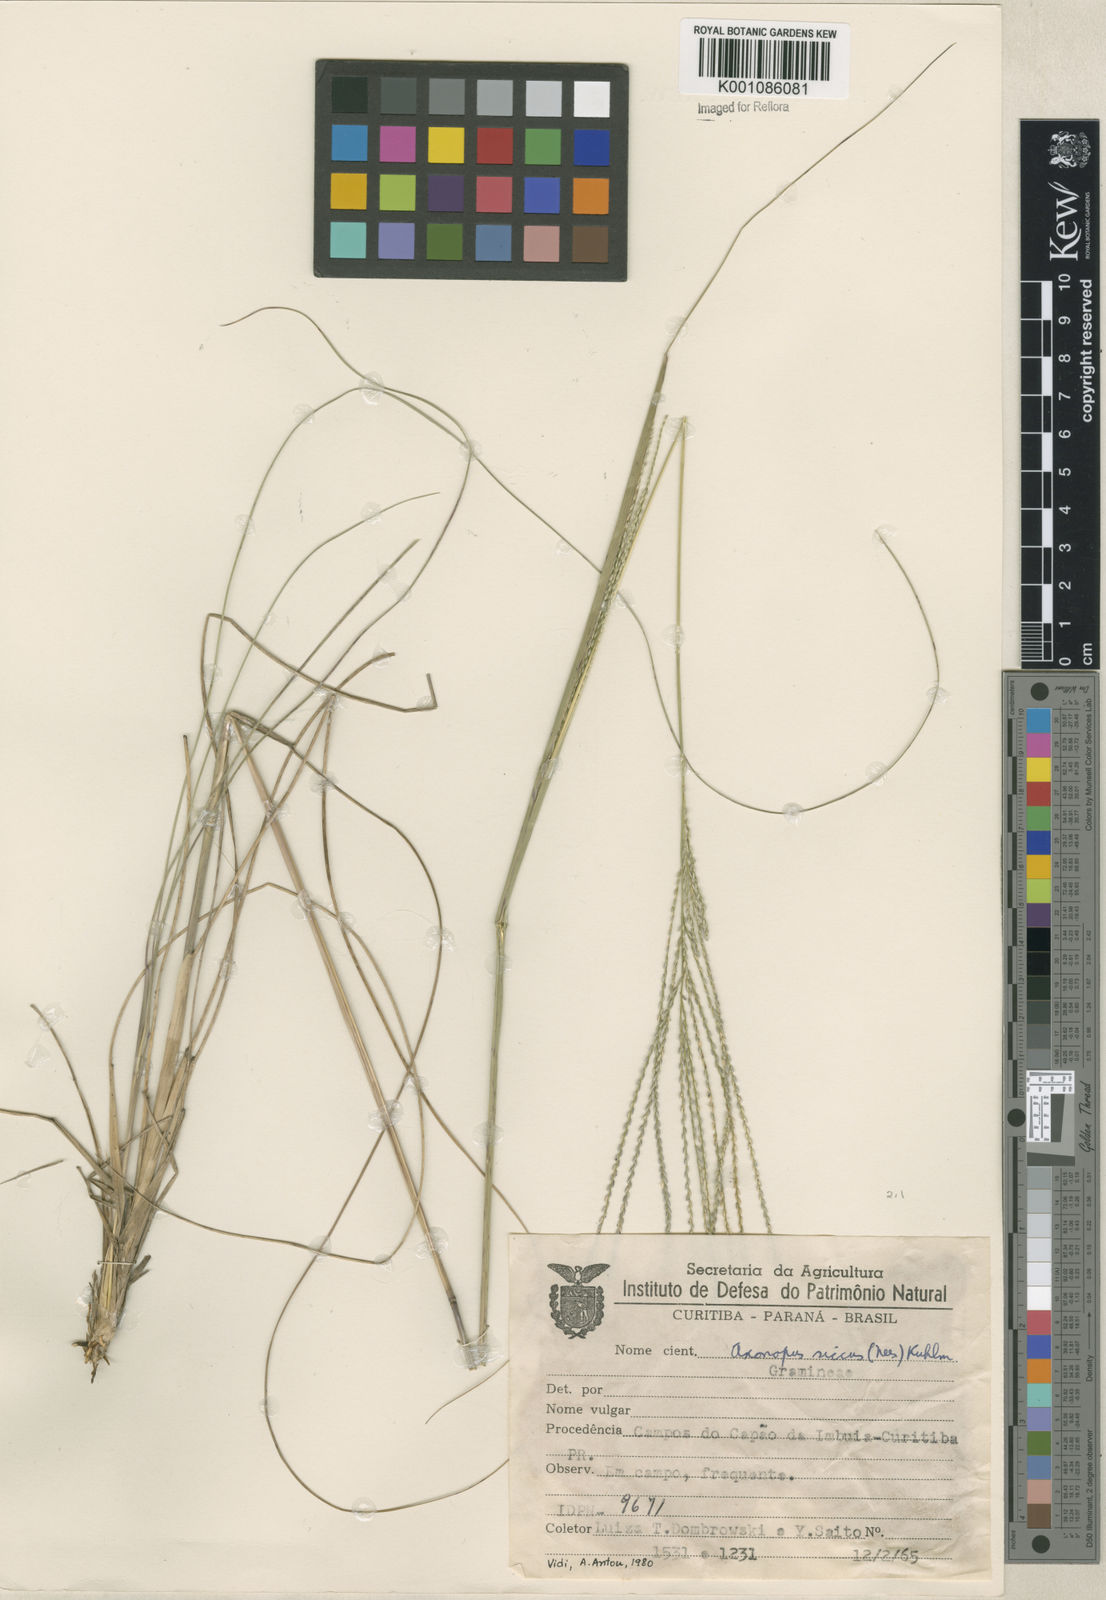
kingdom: Plantae
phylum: Tracheophyta
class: Liliopsida
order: Poales
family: Poaceae
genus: Axonopus
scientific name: Axonopus siccus
